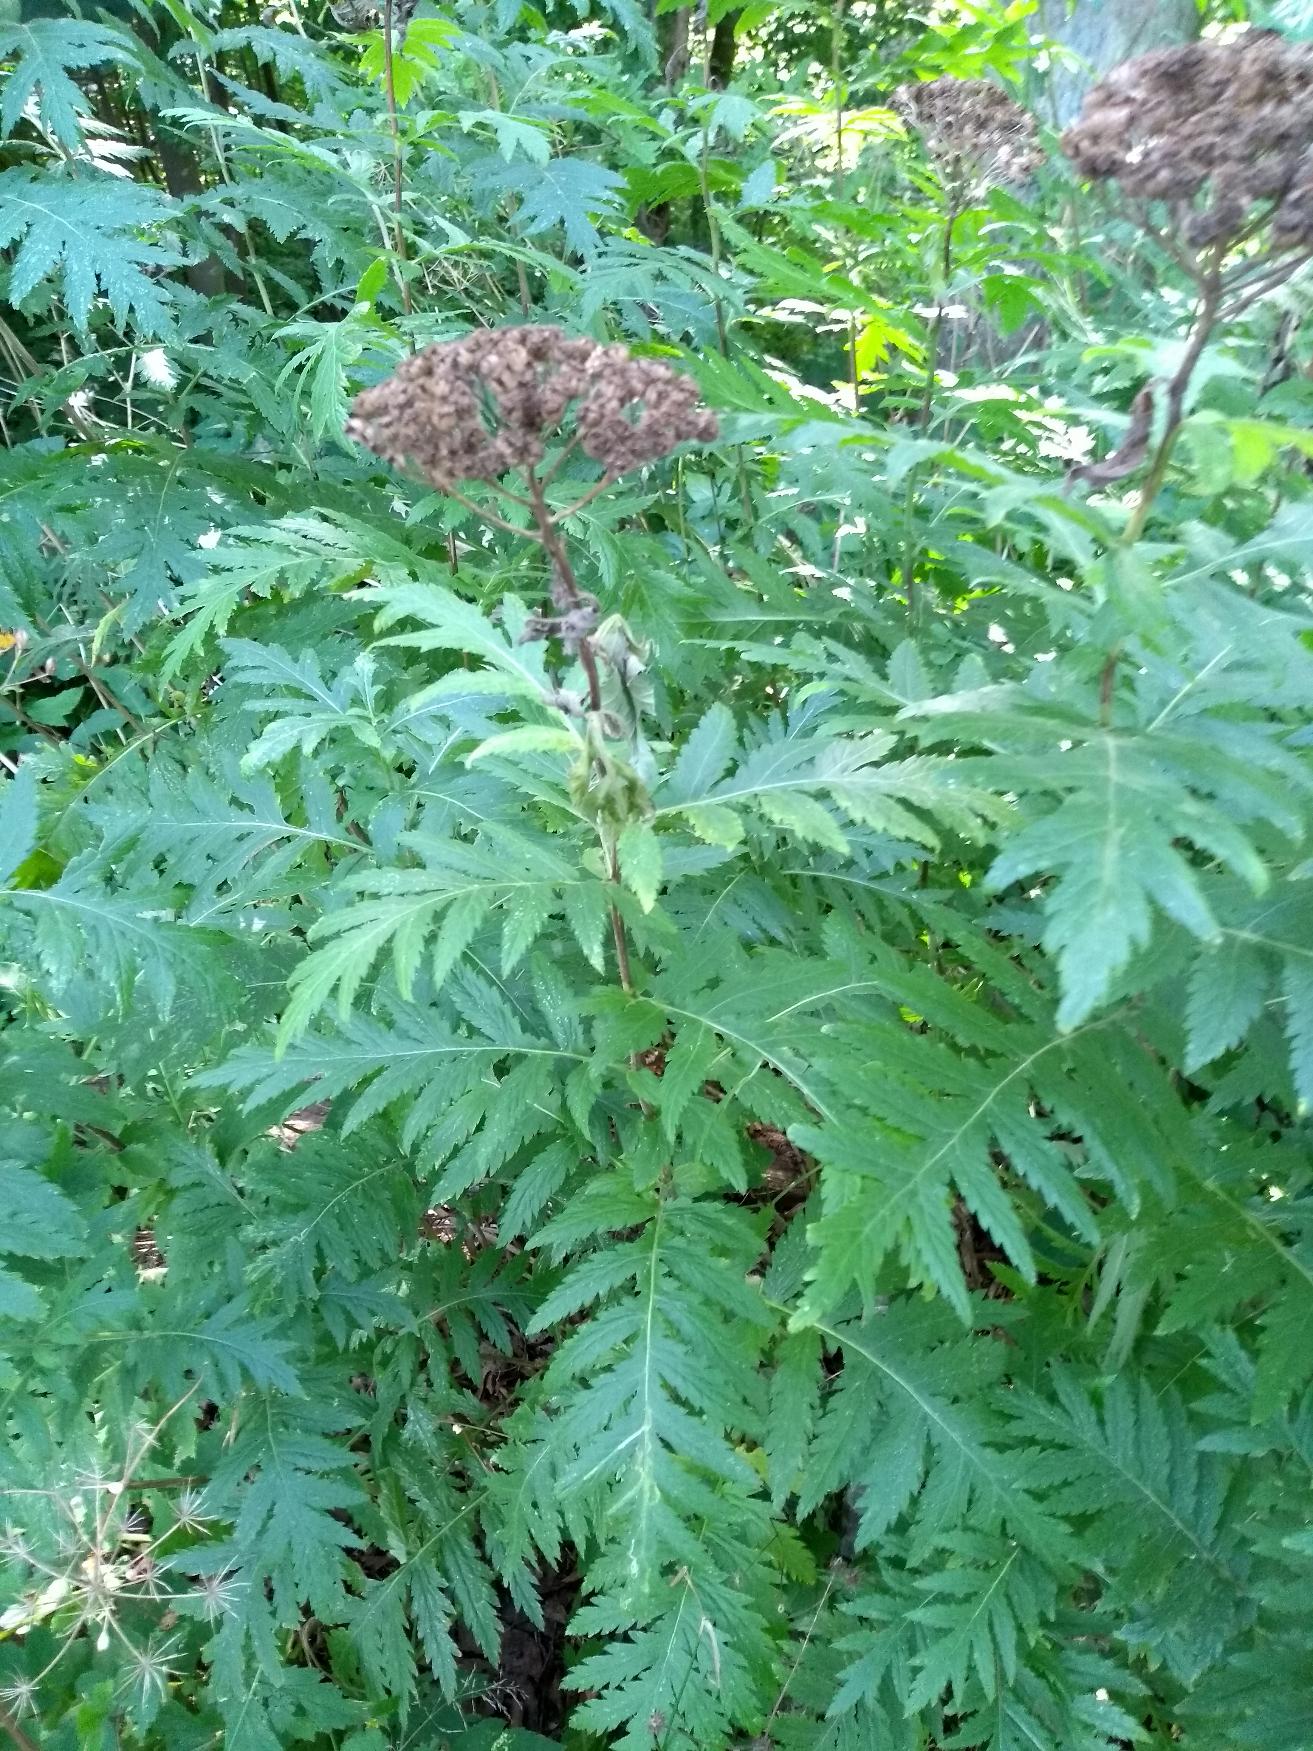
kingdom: Plantae
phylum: Tracheophyta
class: Magnoliopsida
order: Asterales
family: Asteraceae
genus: Tanacetum
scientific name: Tanacetum macrophyllum
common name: Røllike-matrem
